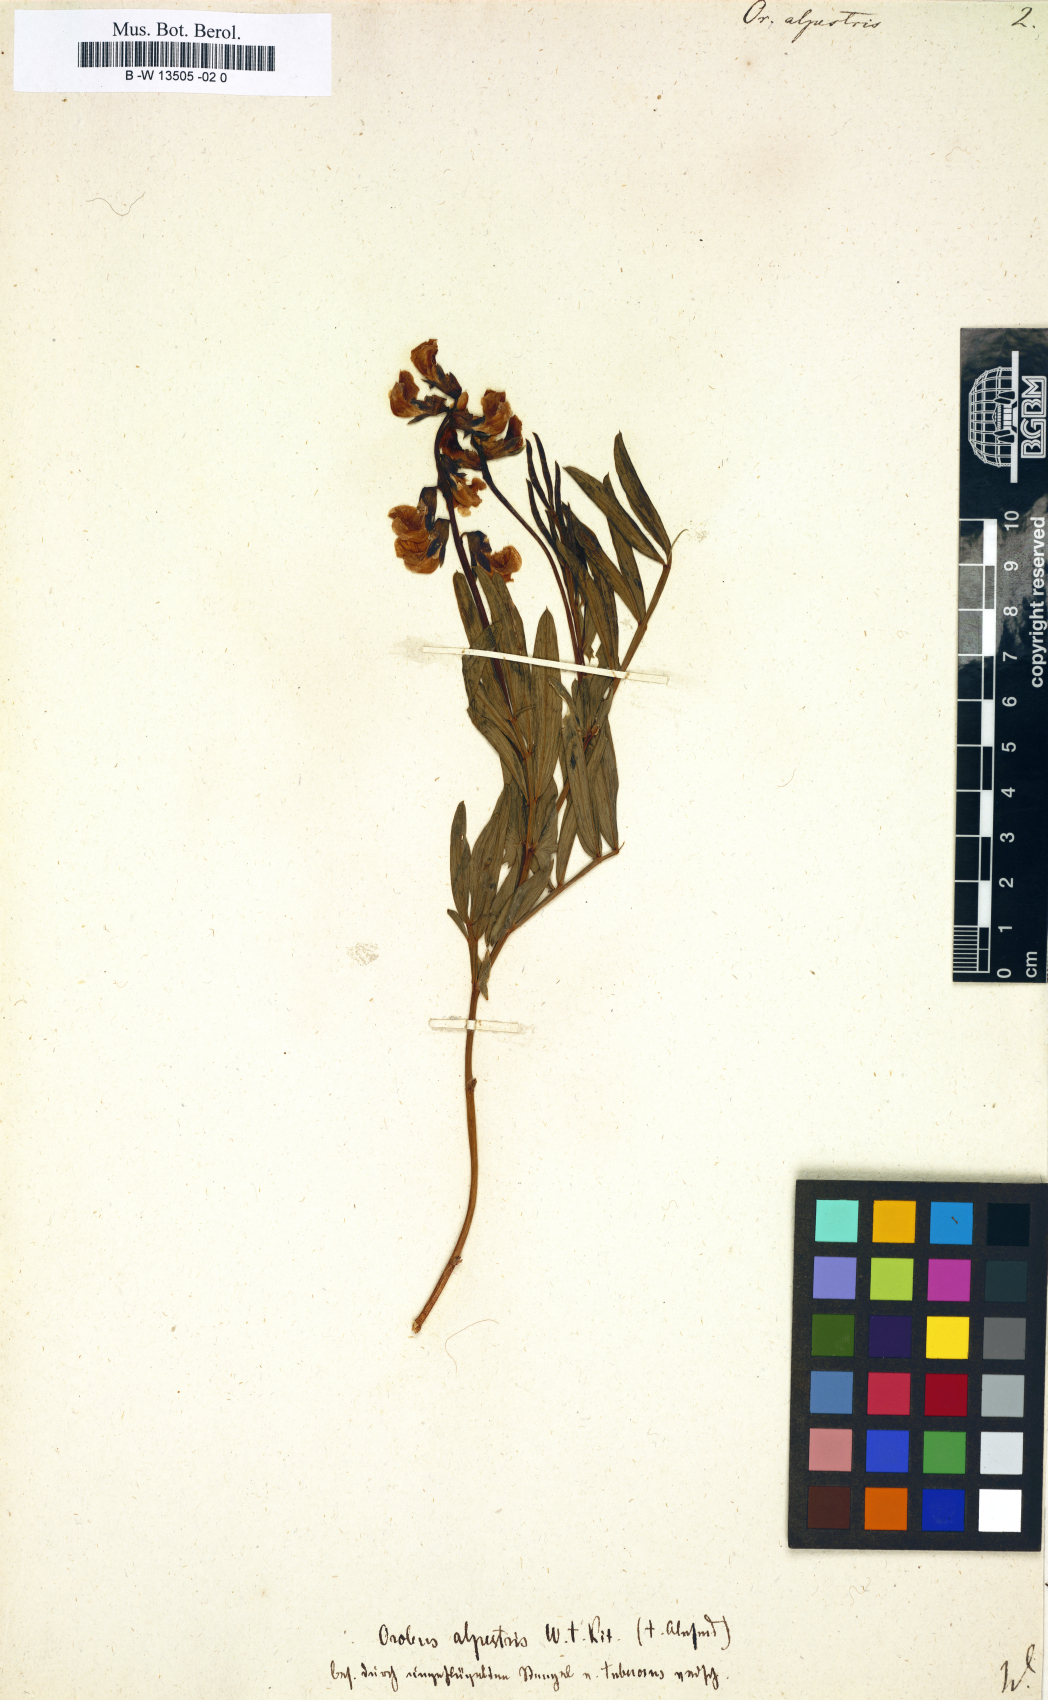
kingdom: Plantae
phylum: Tracheophyta
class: Magnoliopsida
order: Fabales
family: Fabaceae
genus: Lathyrus
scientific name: Lathyrus
